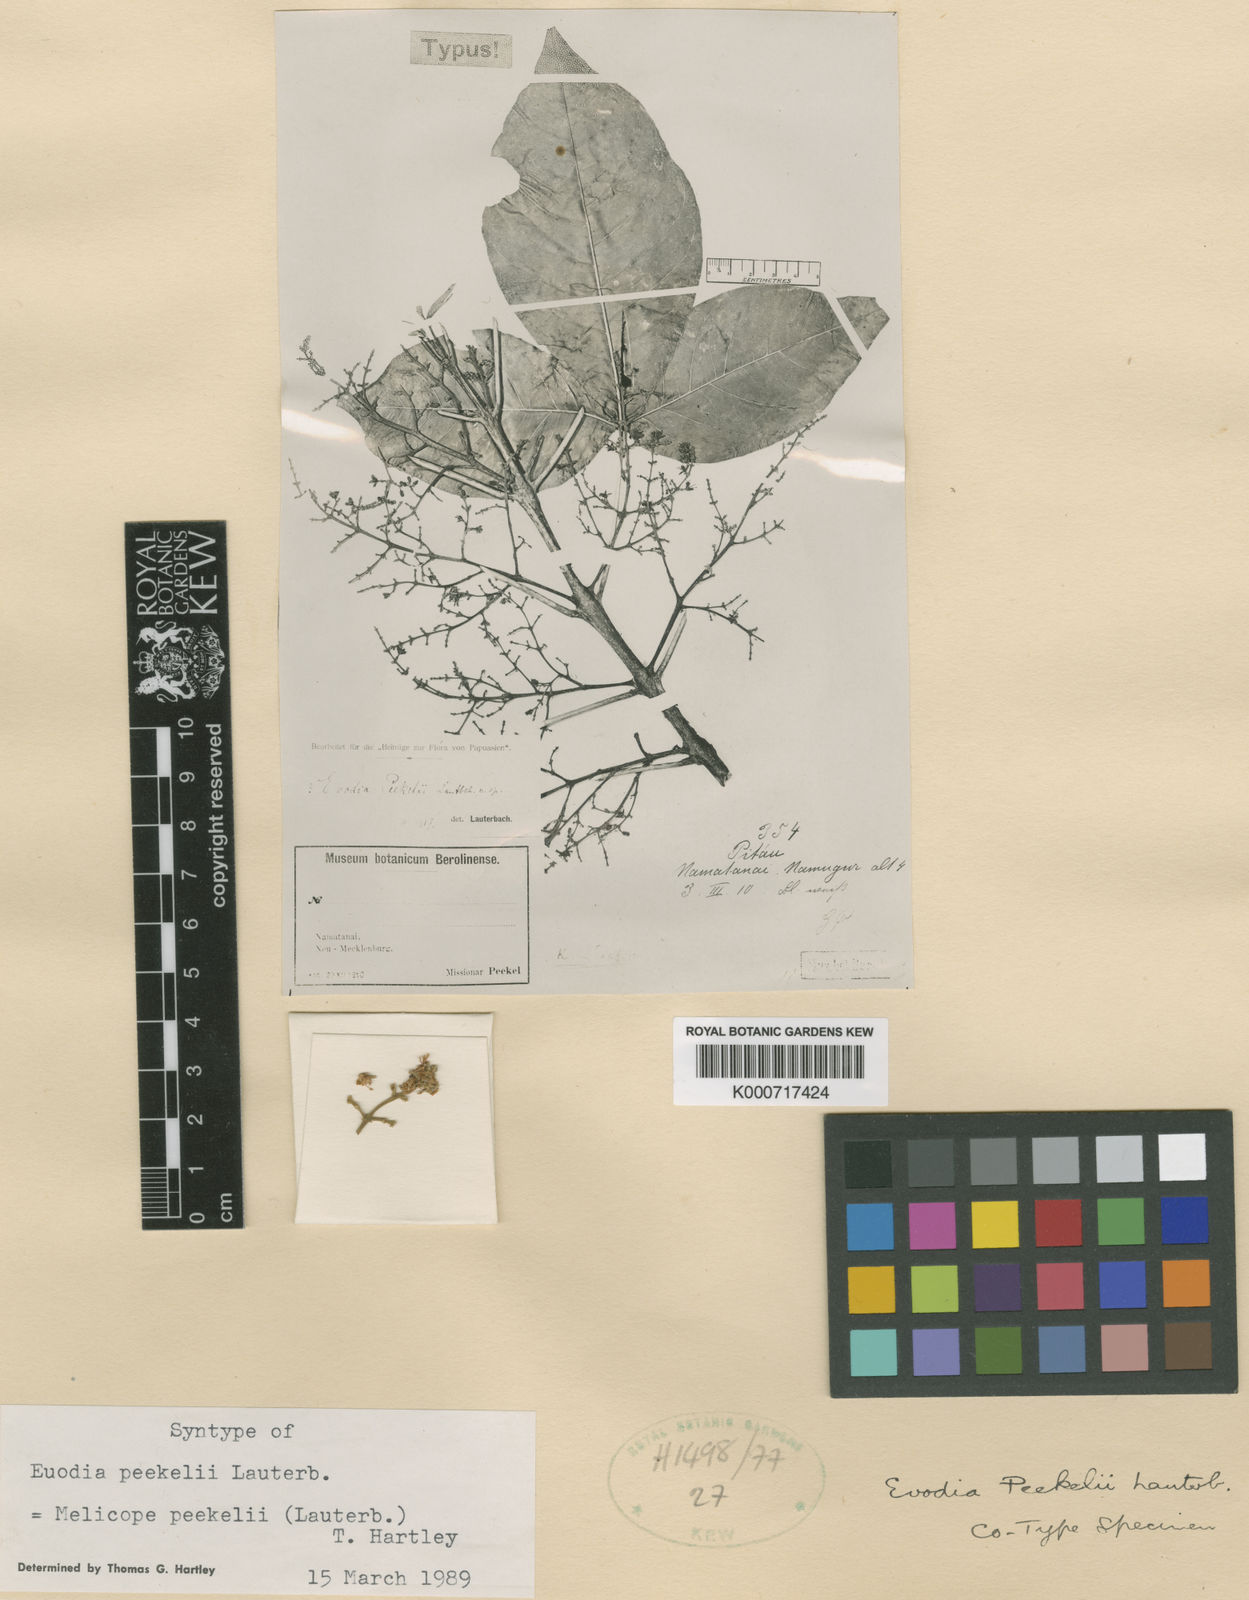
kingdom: Plantae
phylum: Tracheophyta
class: Magnoliopsida
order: Sapindales
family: Rutaceae
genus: Melicope
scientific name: Melicope
